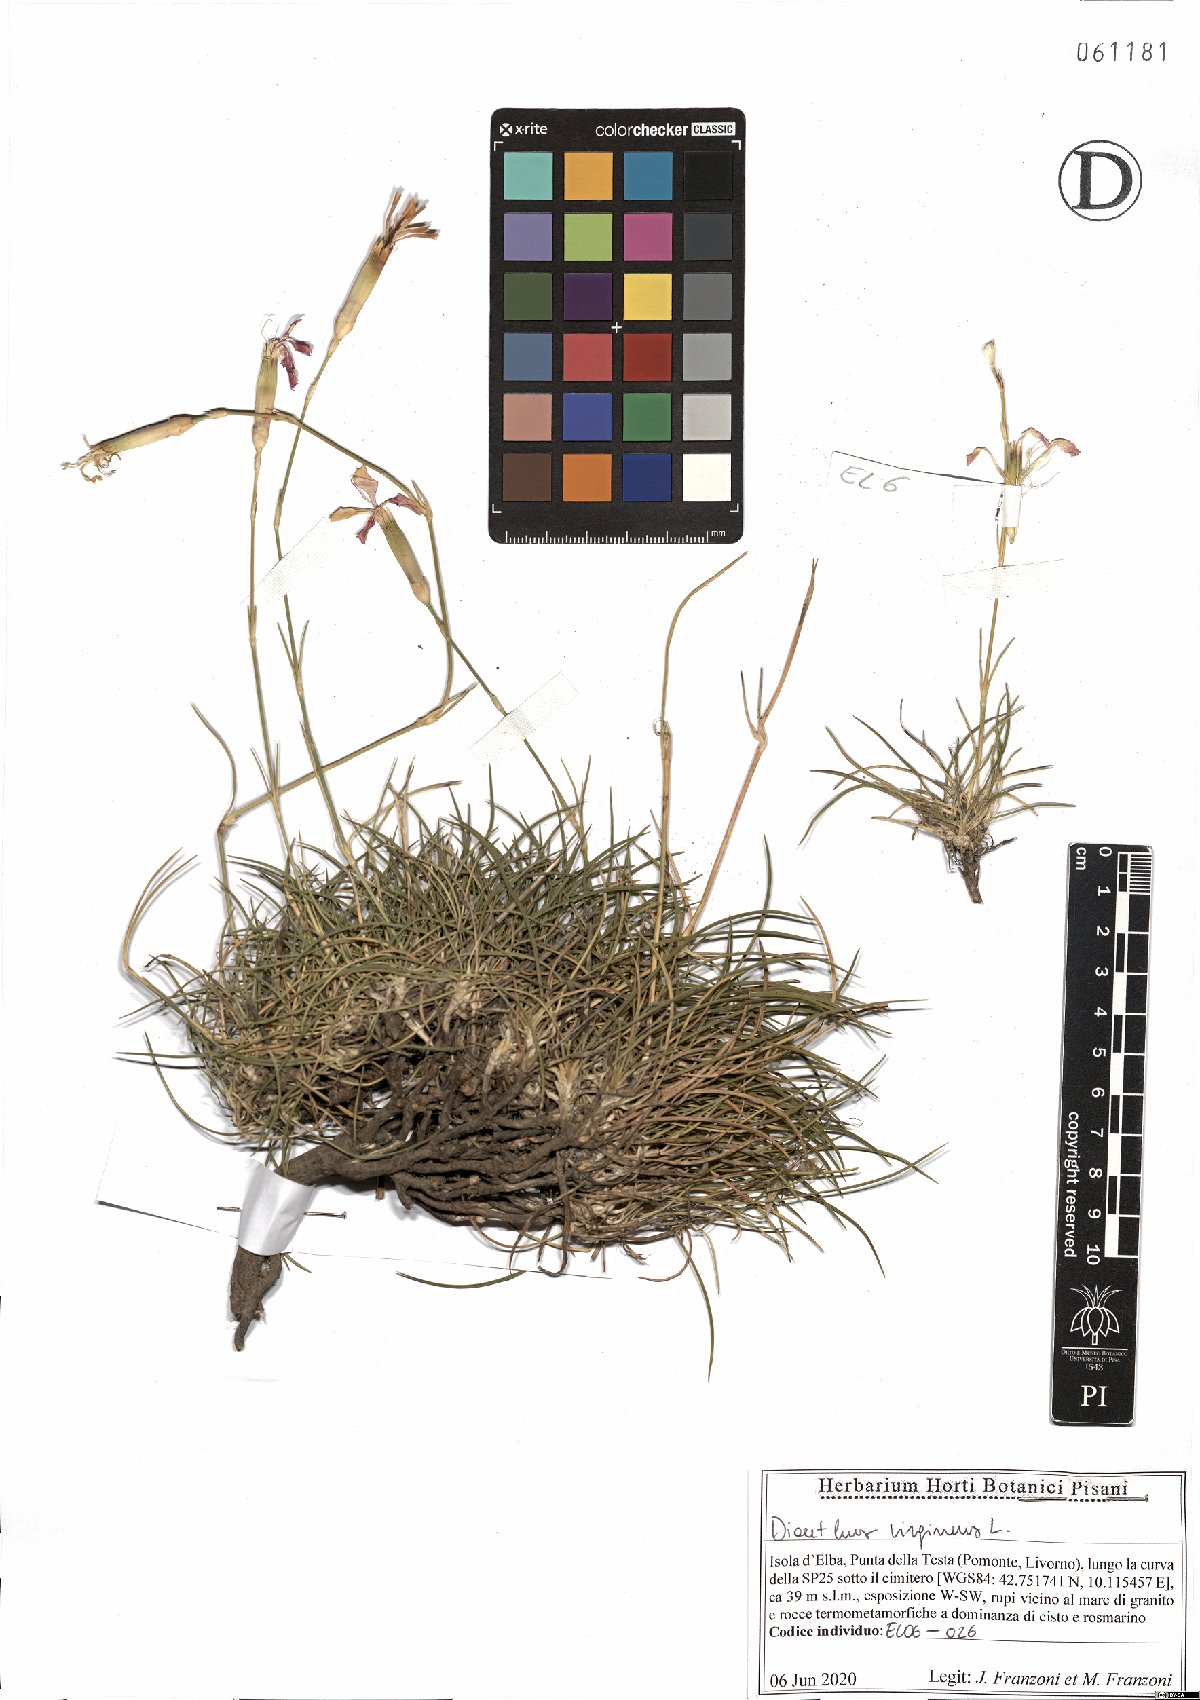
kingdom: Plantae
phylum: Tracheophyta
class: Magnoliopsida
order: Caryophyllales
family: Caryophyllaceae
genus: Dianthus
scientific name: Dianthus virgineus
